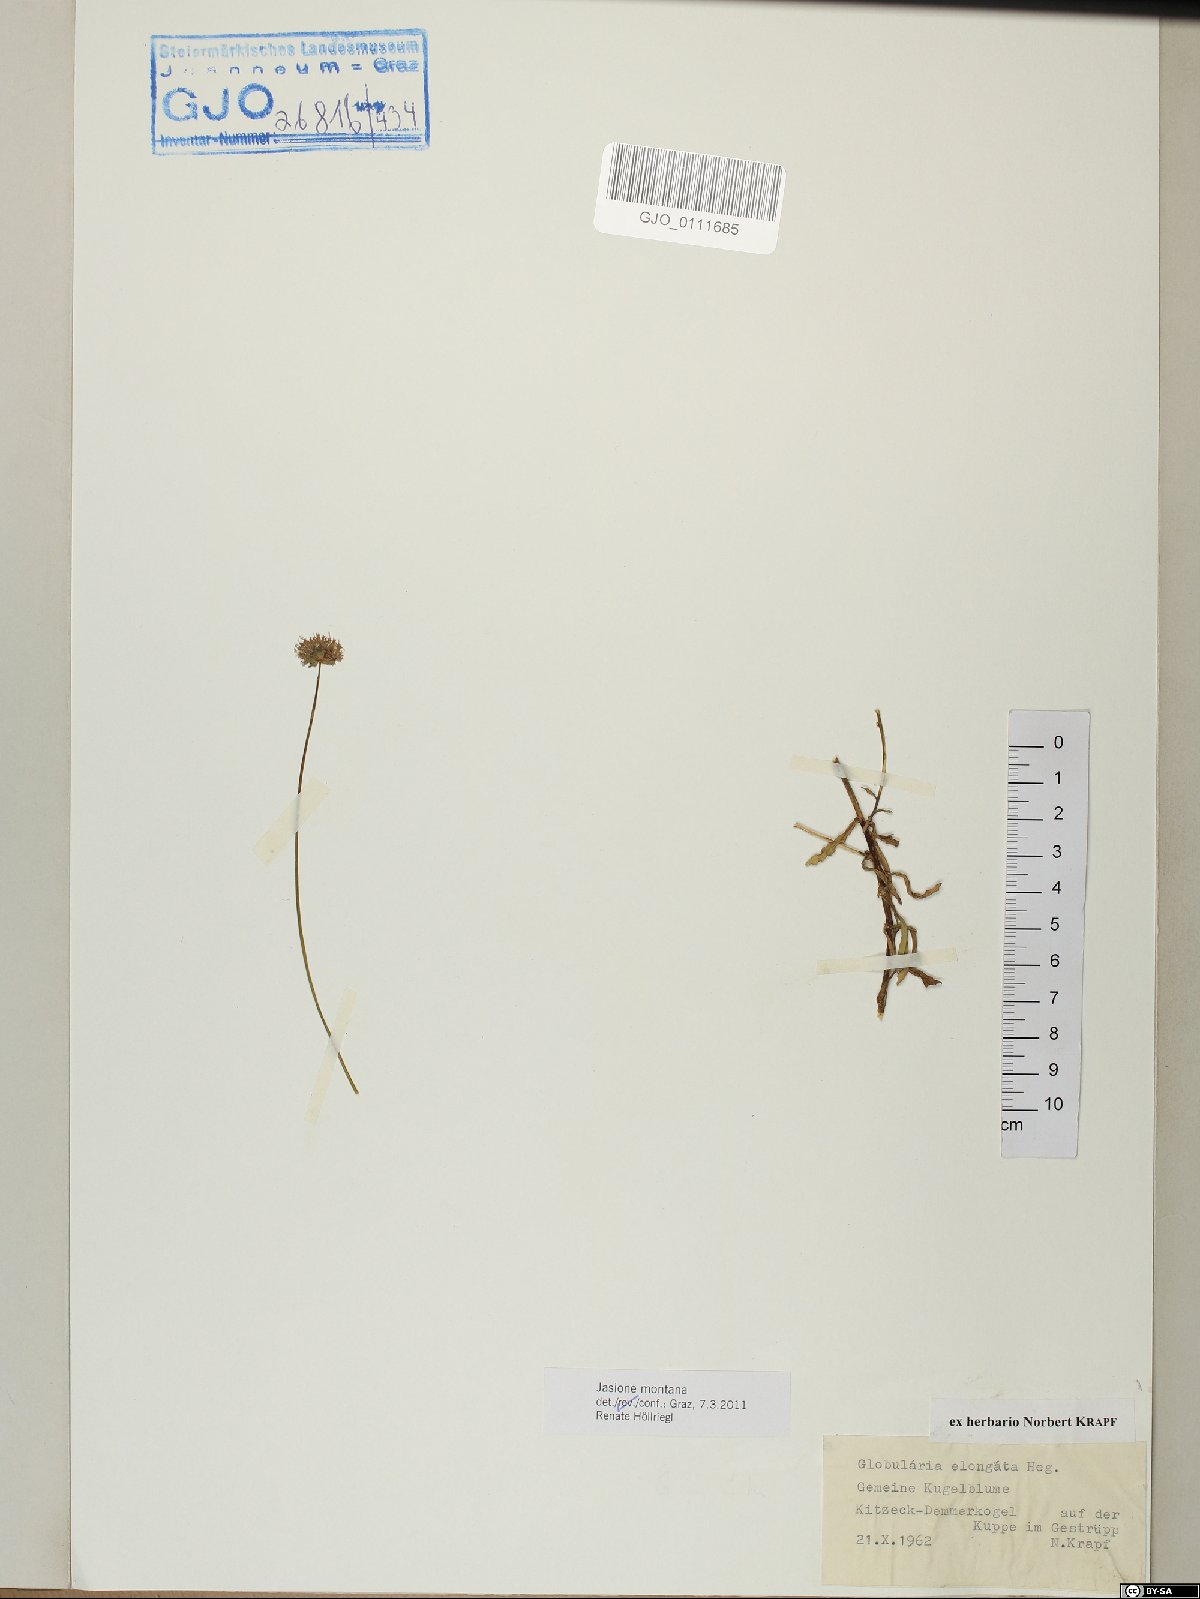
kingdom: Plantae
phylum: Tracheophyta
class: Magnoliopsida
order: Asterales
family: Campanulaceae
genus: Jasione
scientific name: Jasione montana
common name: Sheep's-bit
